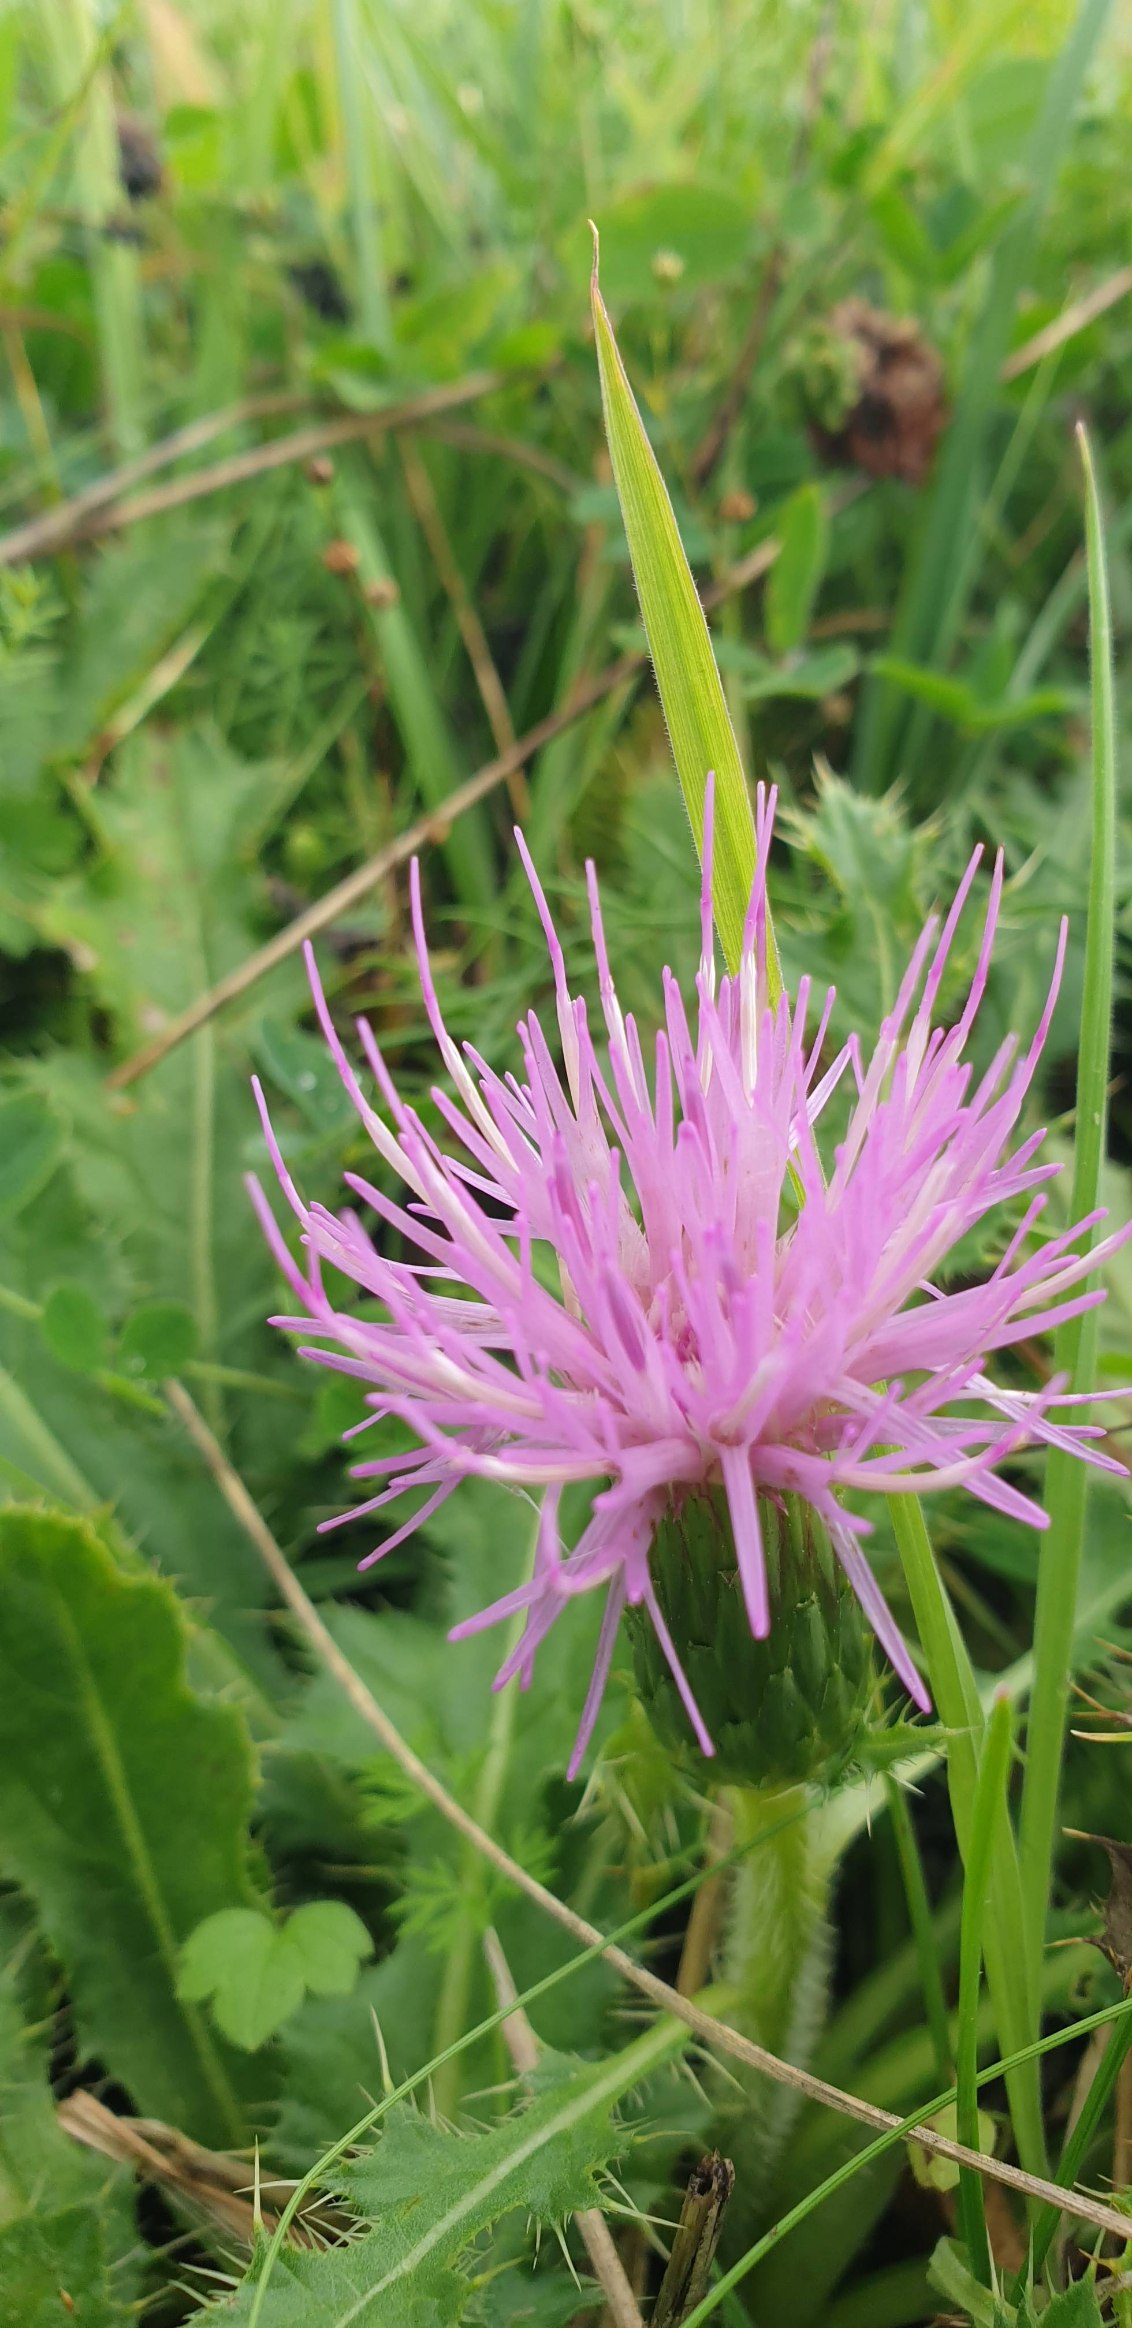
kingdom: Plantae
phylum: Tracheophyta
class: Magnoliopsida
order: Asterales
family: Asteraceae
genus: Cirsium
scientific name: Cirsium acaule
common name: Lav tidsel
